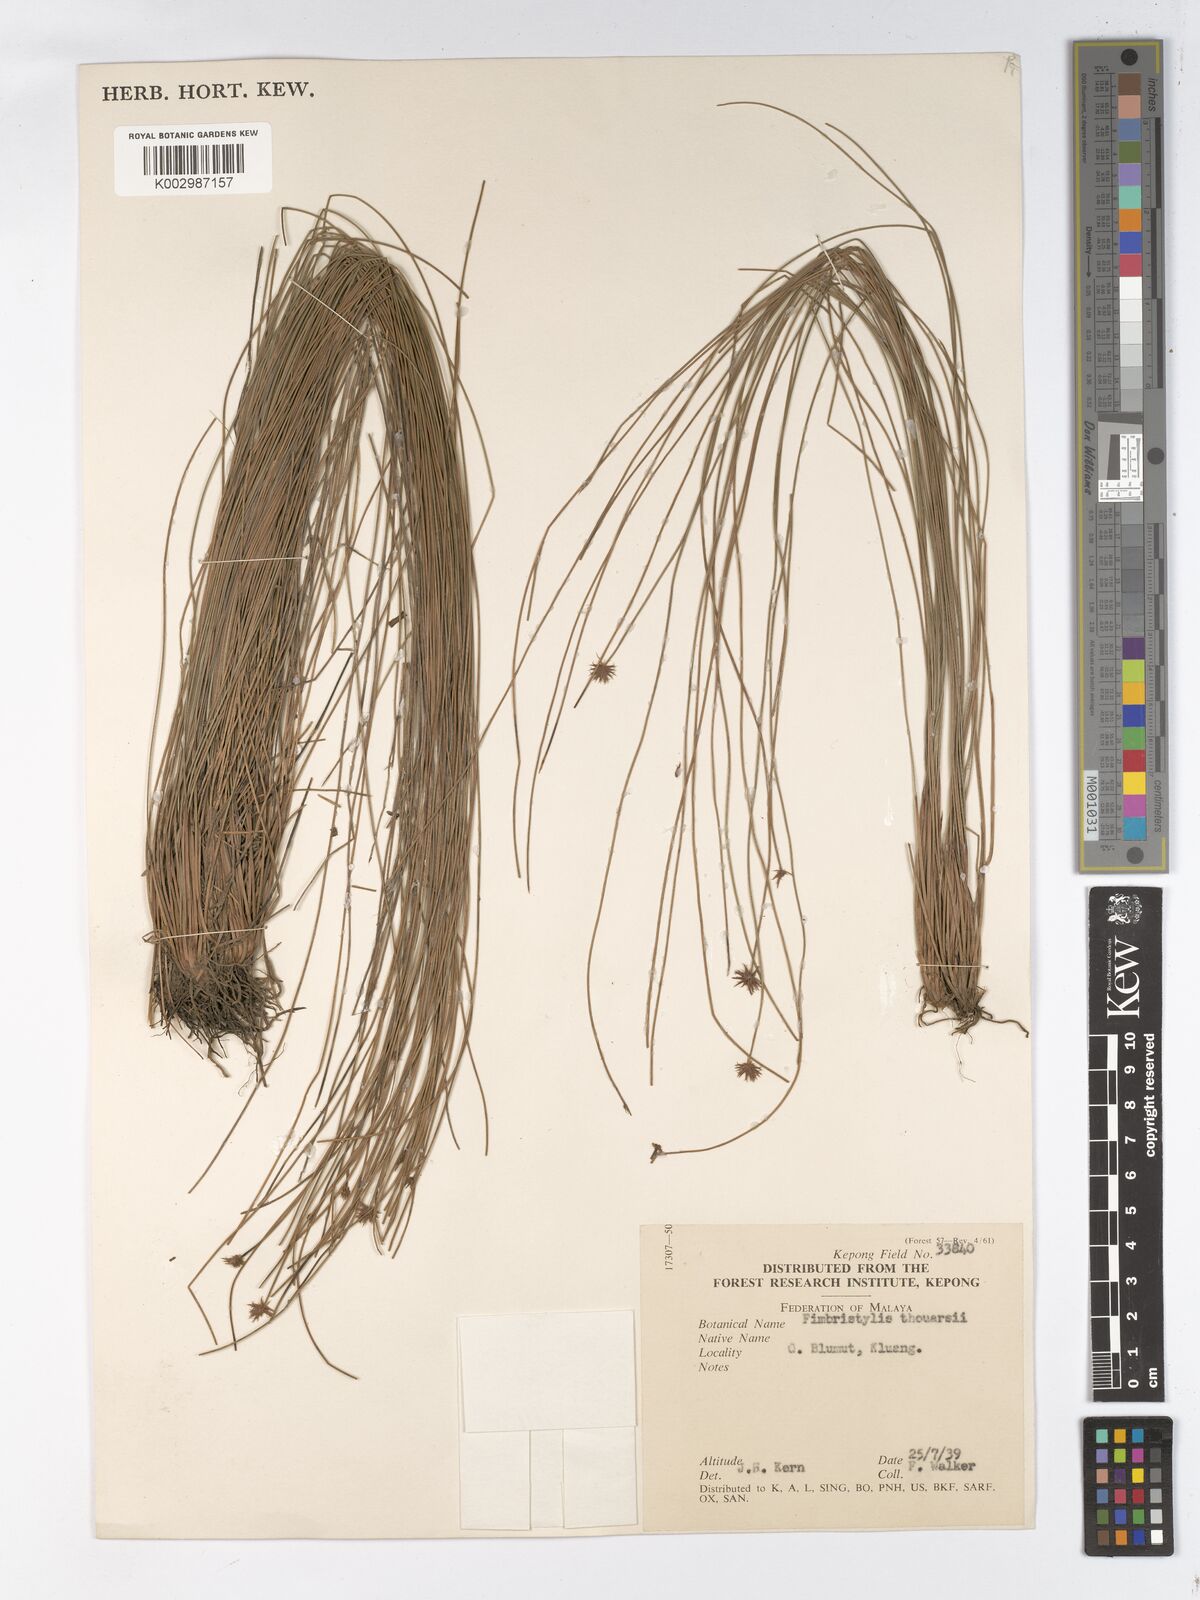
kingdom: Plantae
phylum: Tracheophyta
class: Liliopsida
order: Poales
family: Cyperaceae
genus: Actinoschoenus
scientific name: Actinoschoenus aphyllus
